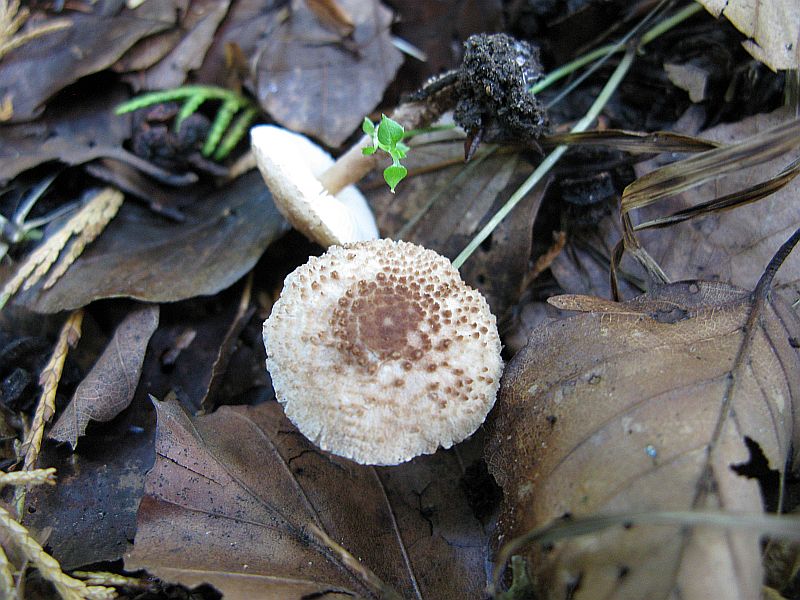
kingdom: Fungi
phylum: Basidiomycota
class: Agaricomycetes
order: Agaricales
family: Agaricaceae
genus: Echinoderma
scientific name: Echinoderma pseudoasperulum
